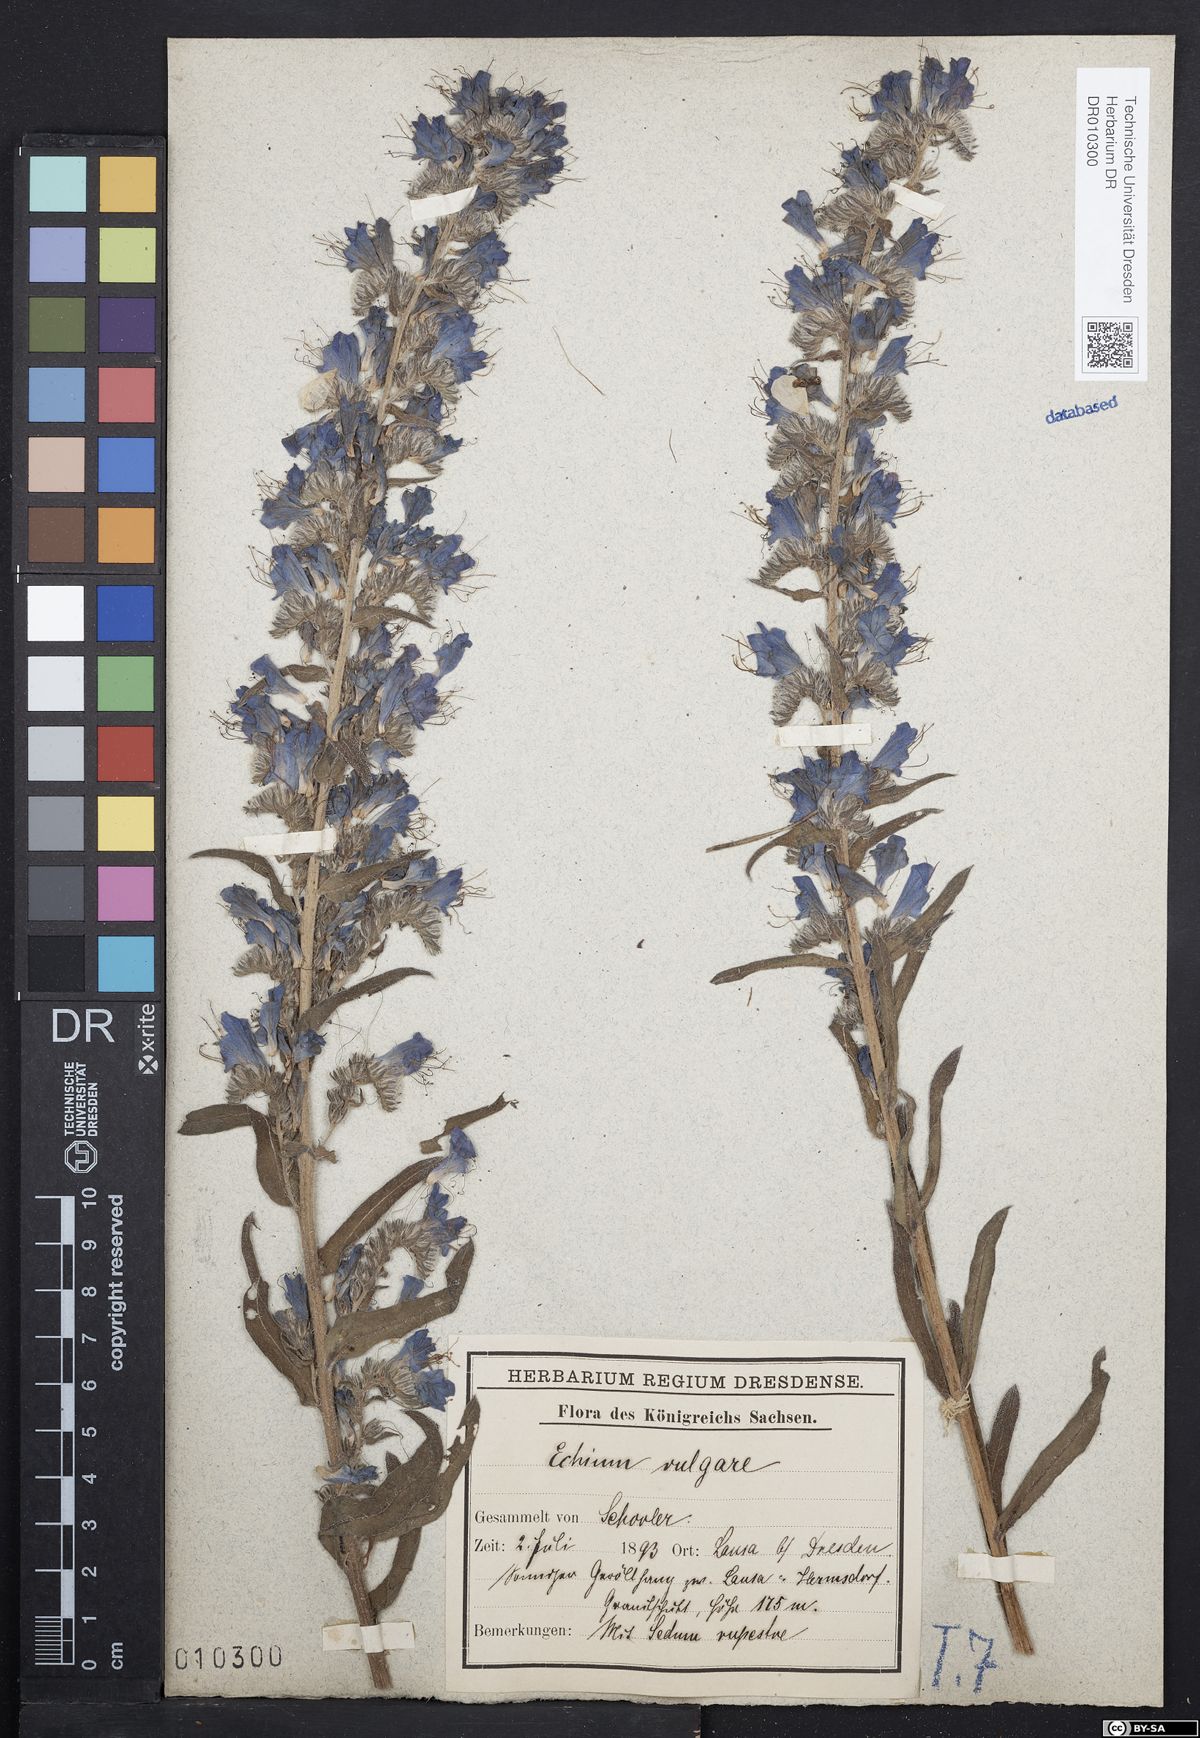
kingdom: Plantae
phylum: Tracheophyta
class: Magnoliopsida
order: Boraginales
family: Boraginaceae
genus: Echium
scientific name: Echium vulgare
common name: Common viper's bugloss
